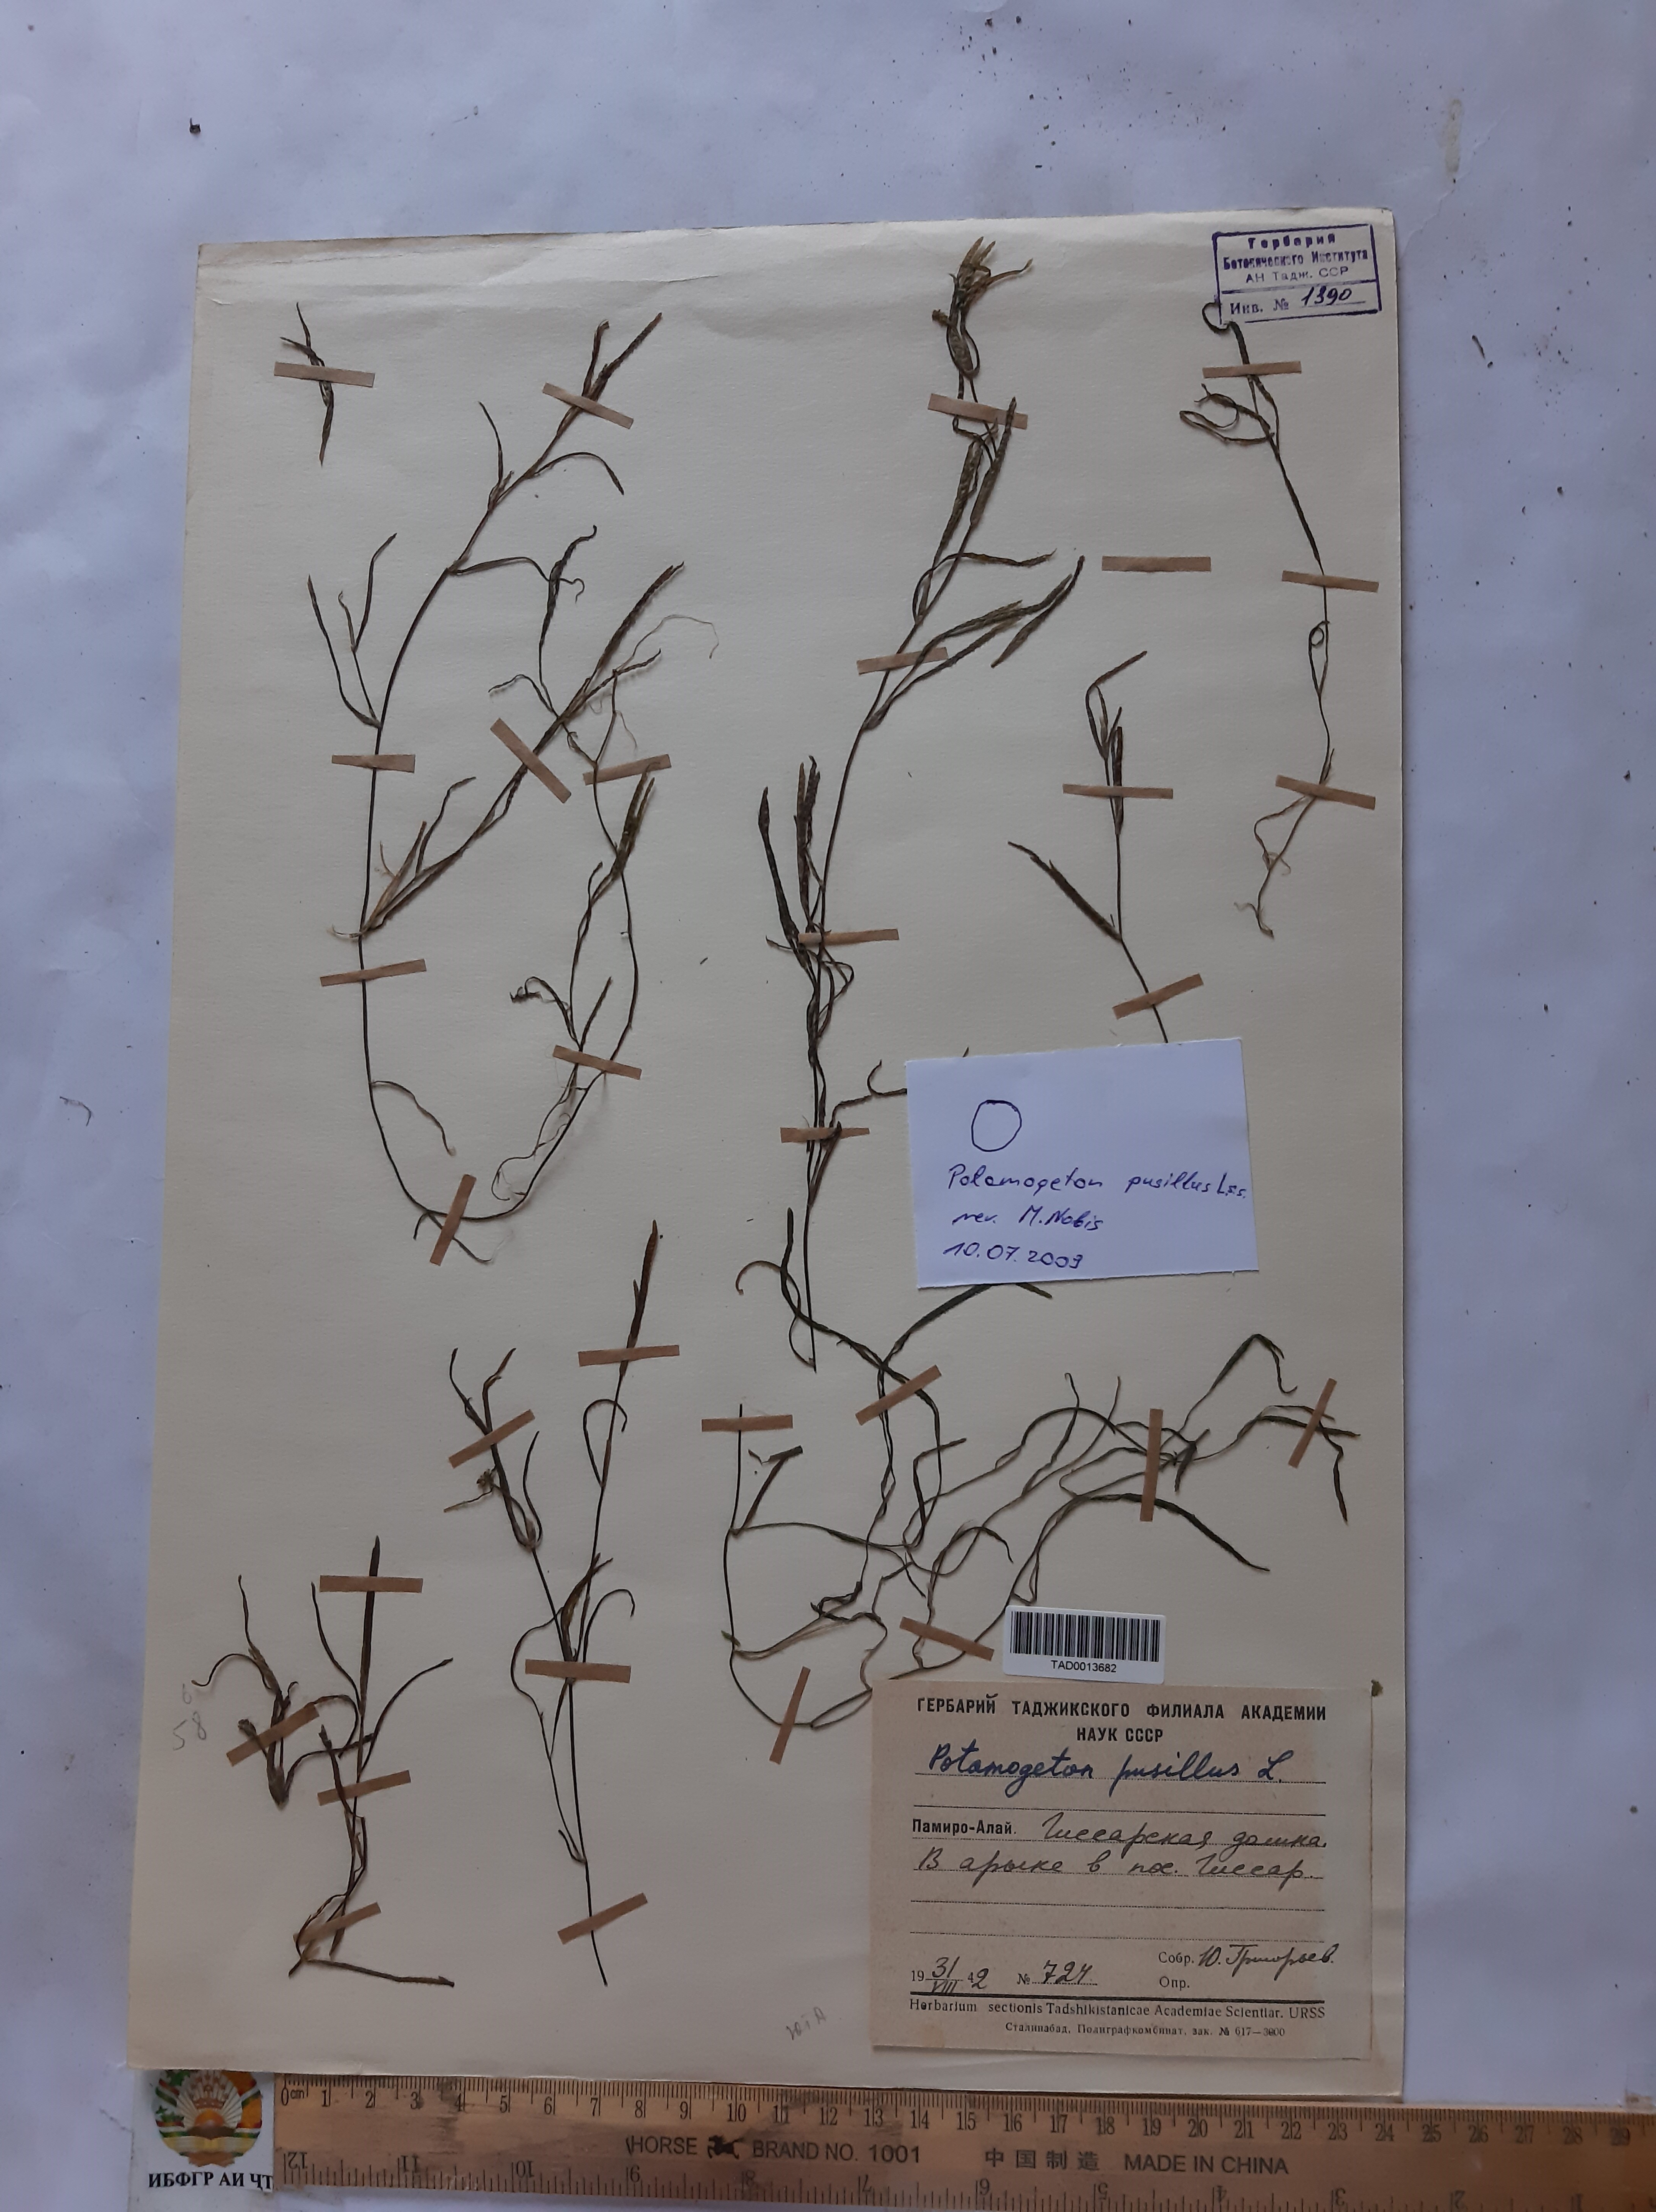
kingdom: Plantae
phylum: Tracheophyta
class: Liliopsida
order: Alismatales
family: Potamogetonaceae
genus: Zannichellia
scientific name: Zannichellia palustris
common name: Horned pondweed
